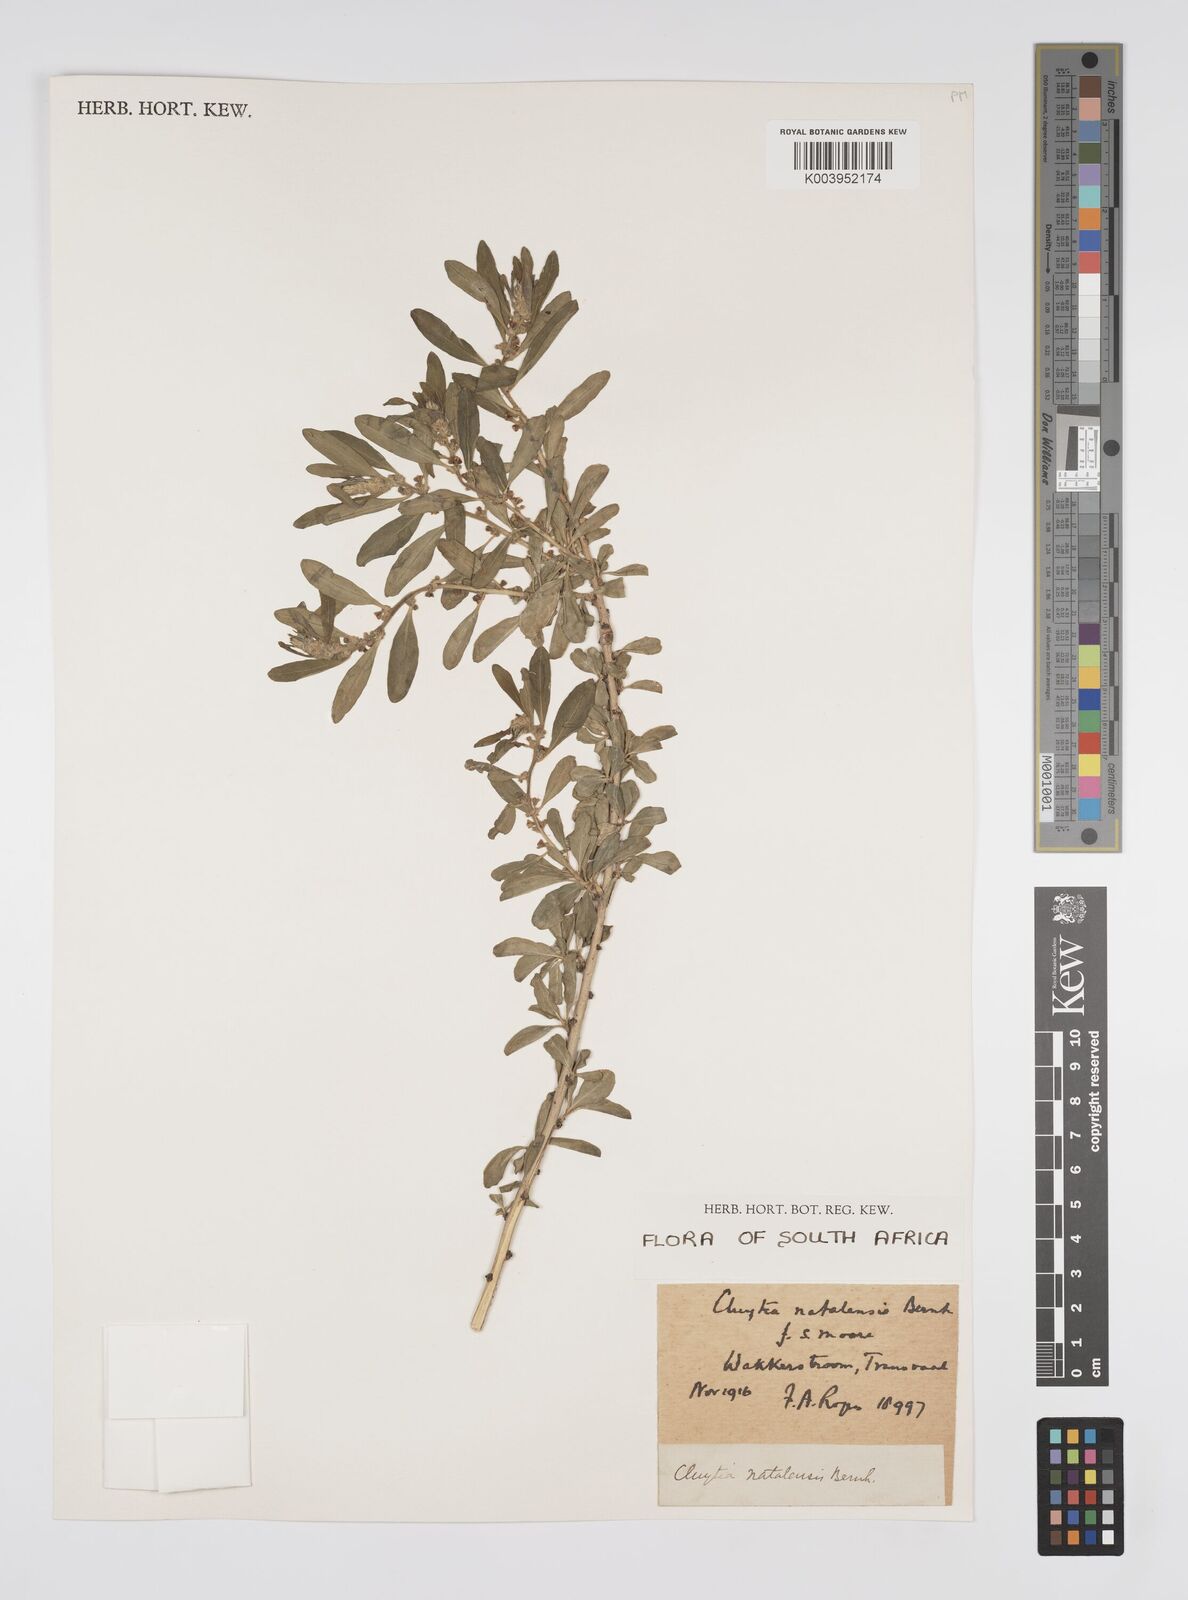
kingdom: Plantae
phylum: Tracheophyta
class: Magnoliopsida
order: Malpighiales
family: Peraceae
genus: Clutia
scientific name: Clutia natalensis
